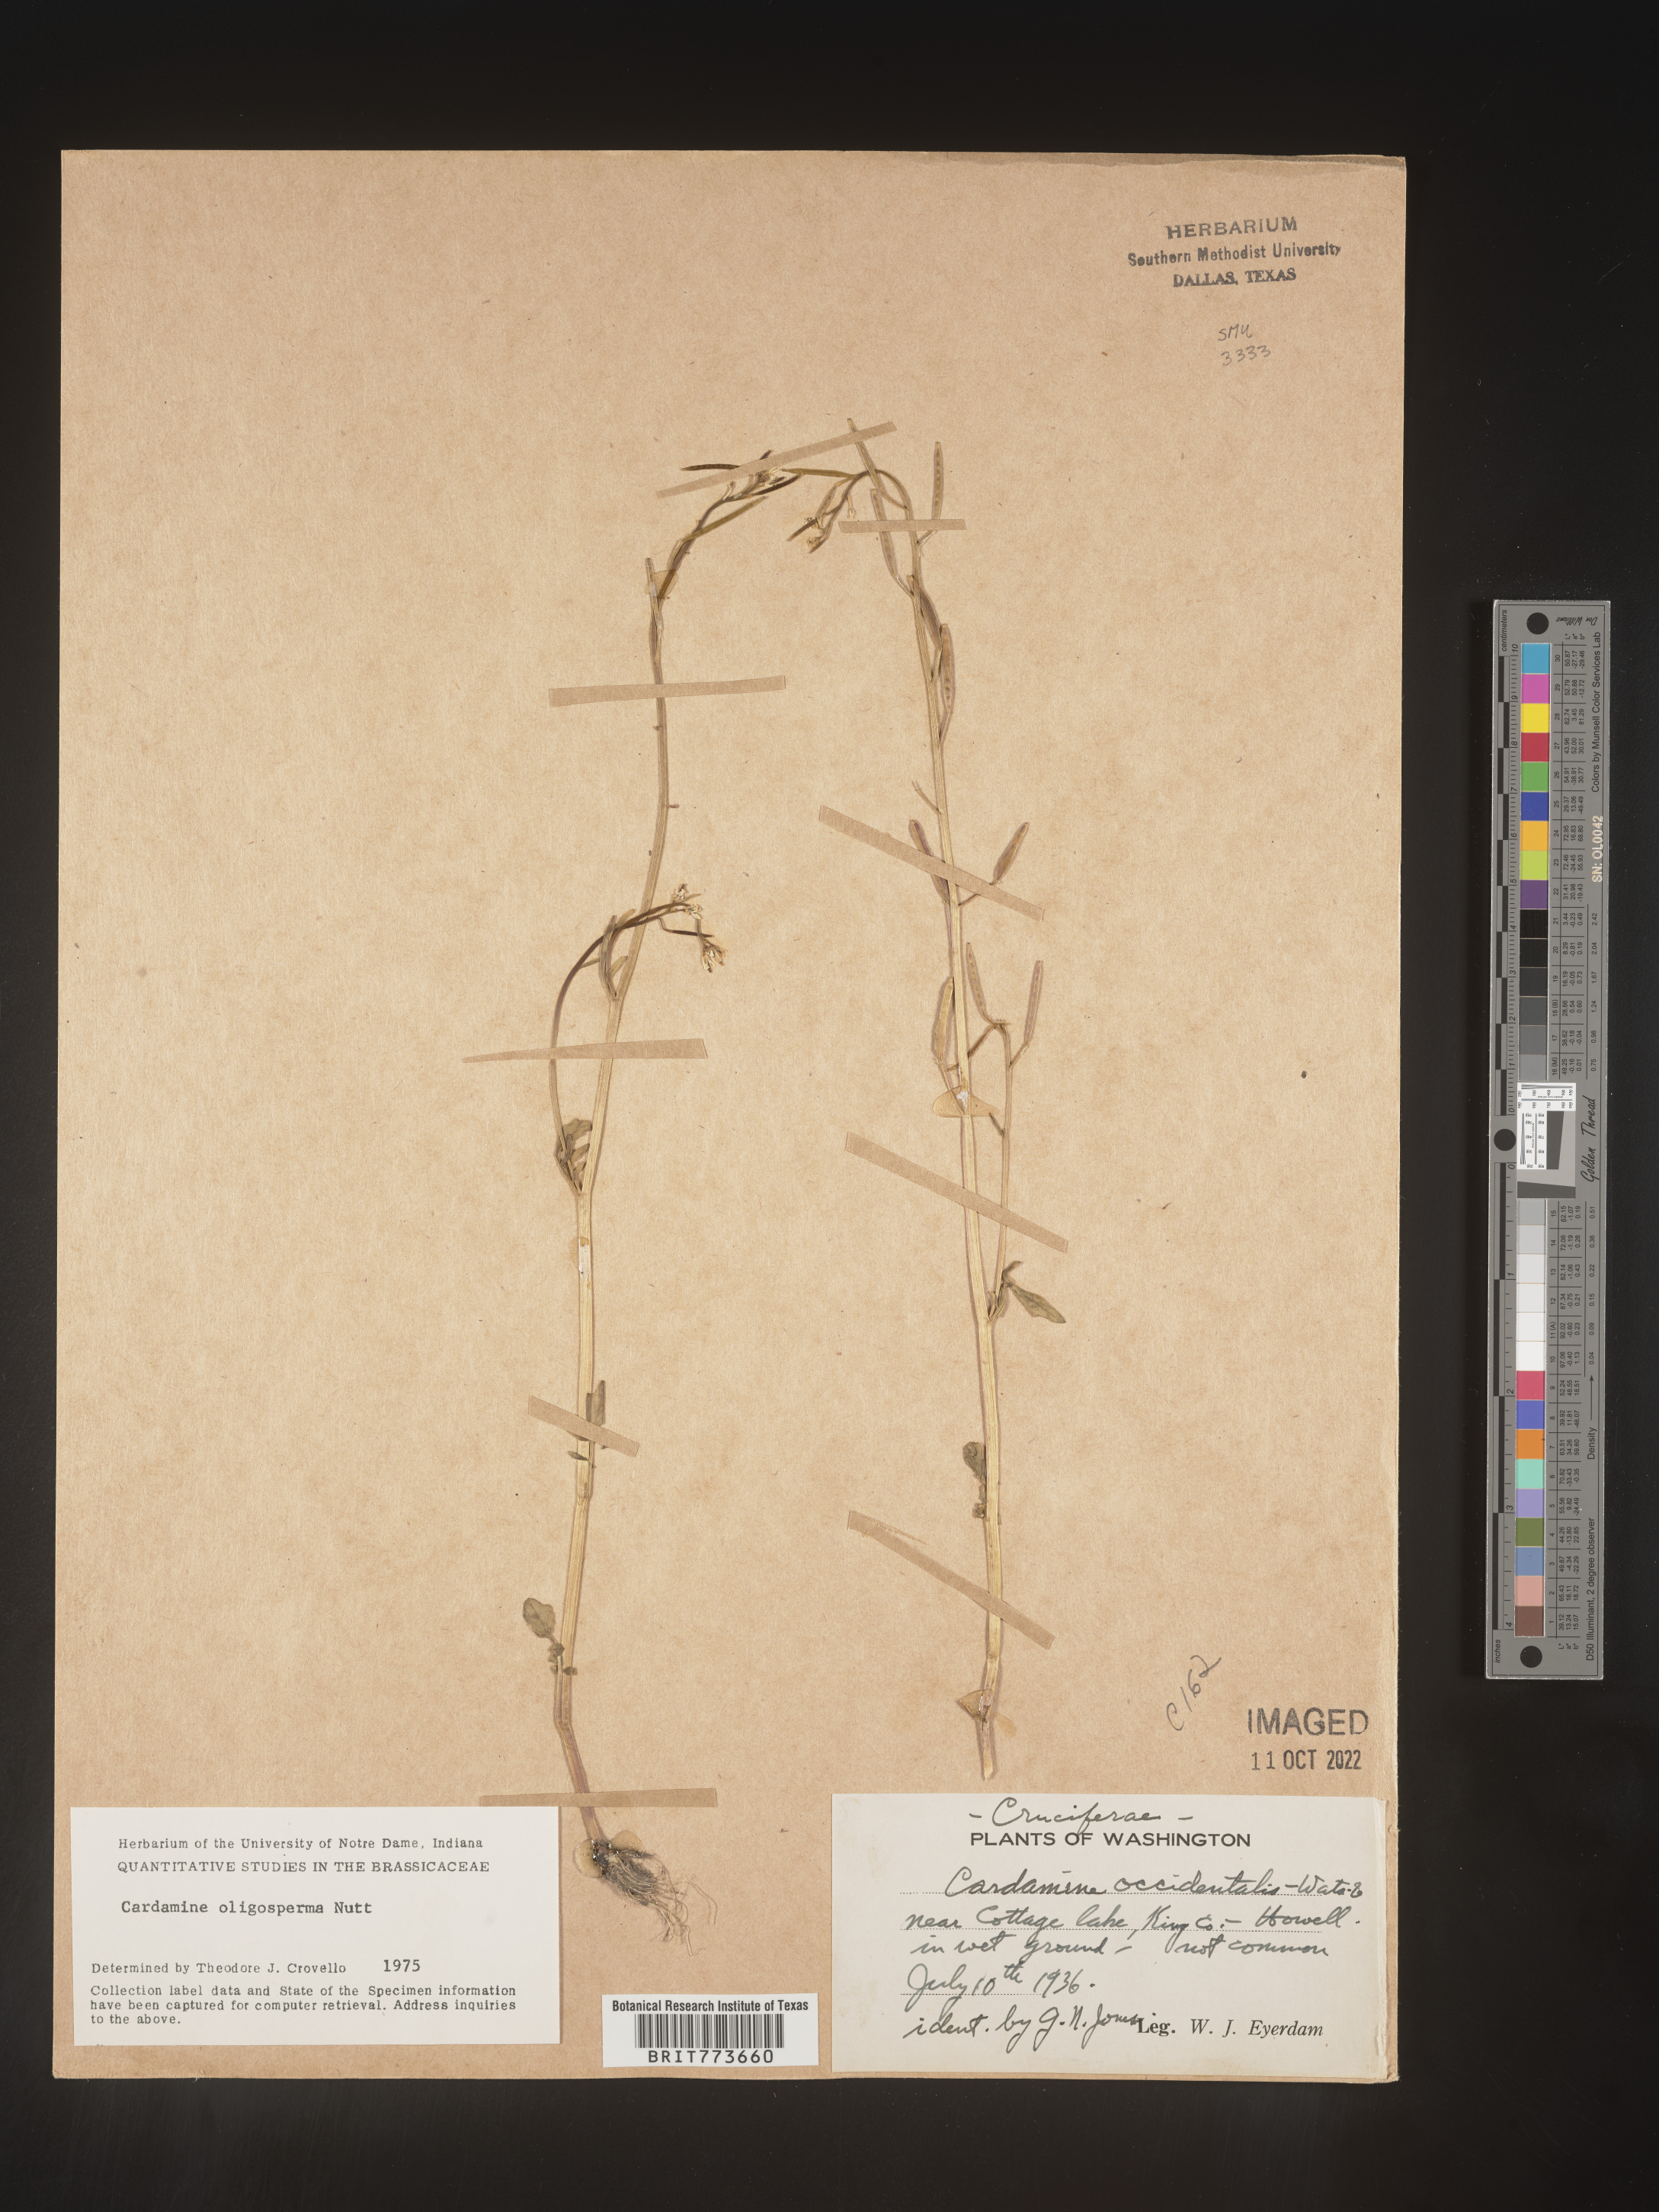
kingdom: Plantae
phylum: Tracheophyta
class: Magnoliopsida
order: Brassicales
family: Brassicaceae
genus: Cardamine
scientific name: Cardamine
